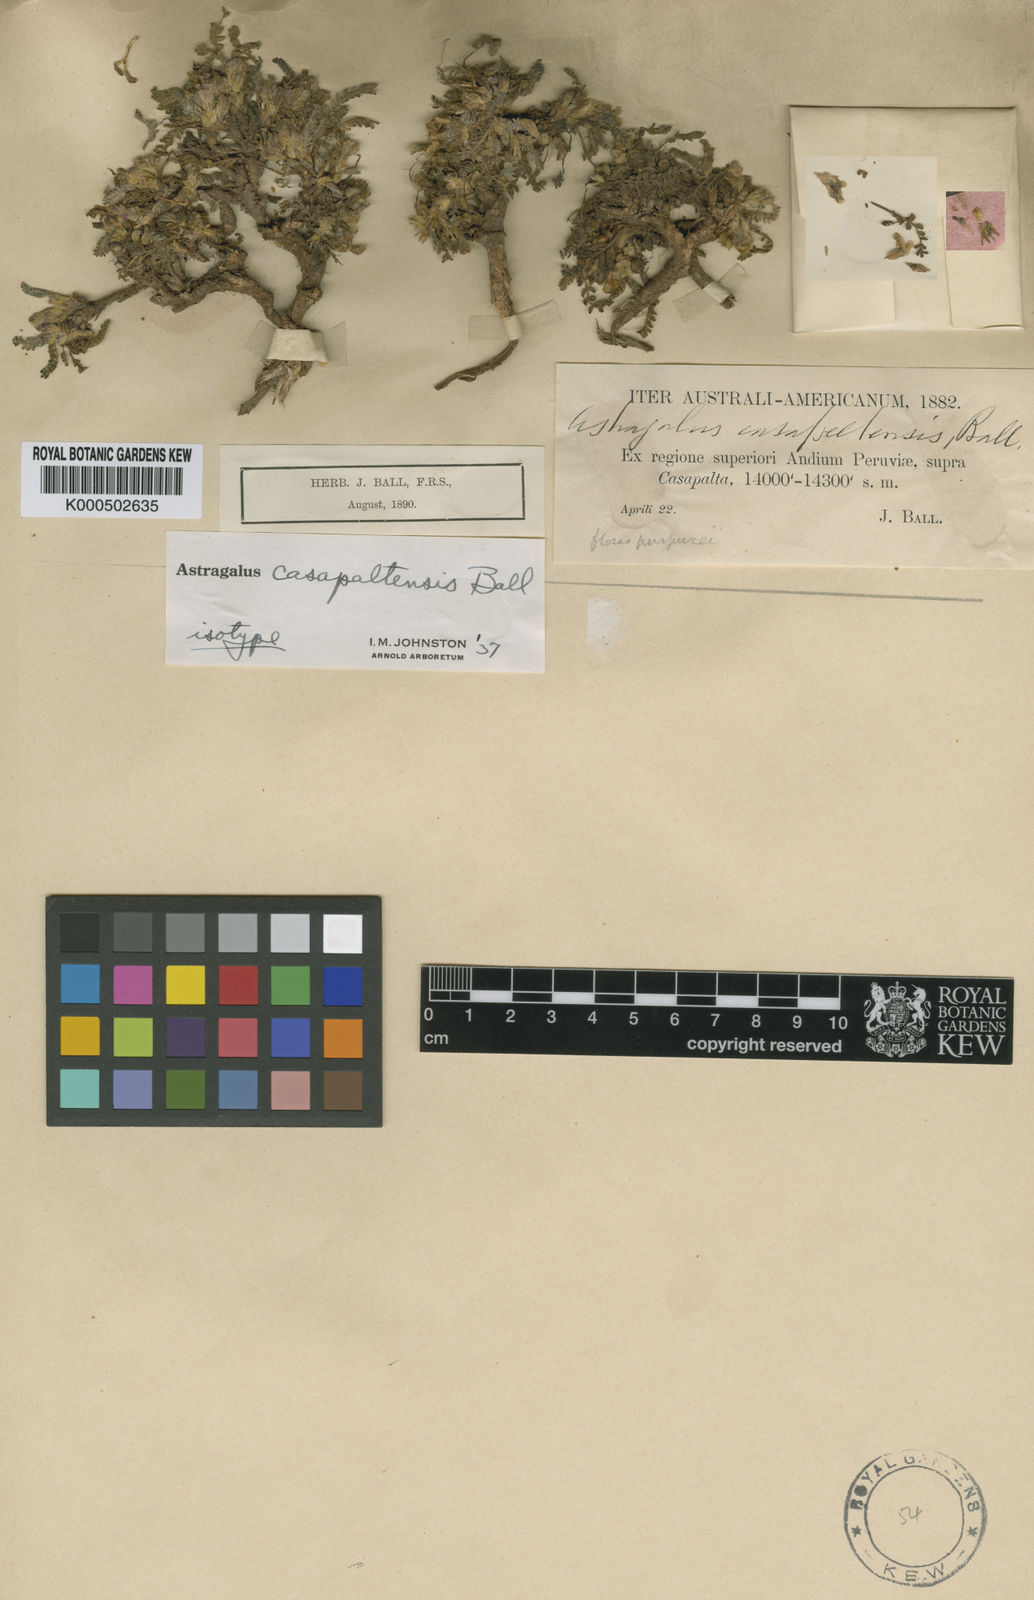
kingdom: Plantae
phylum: Tracheophyta
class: Magnoliopsida
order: Fabales
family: Fabaceae
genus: Astragalus
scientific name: Astragalus casapaltensis
